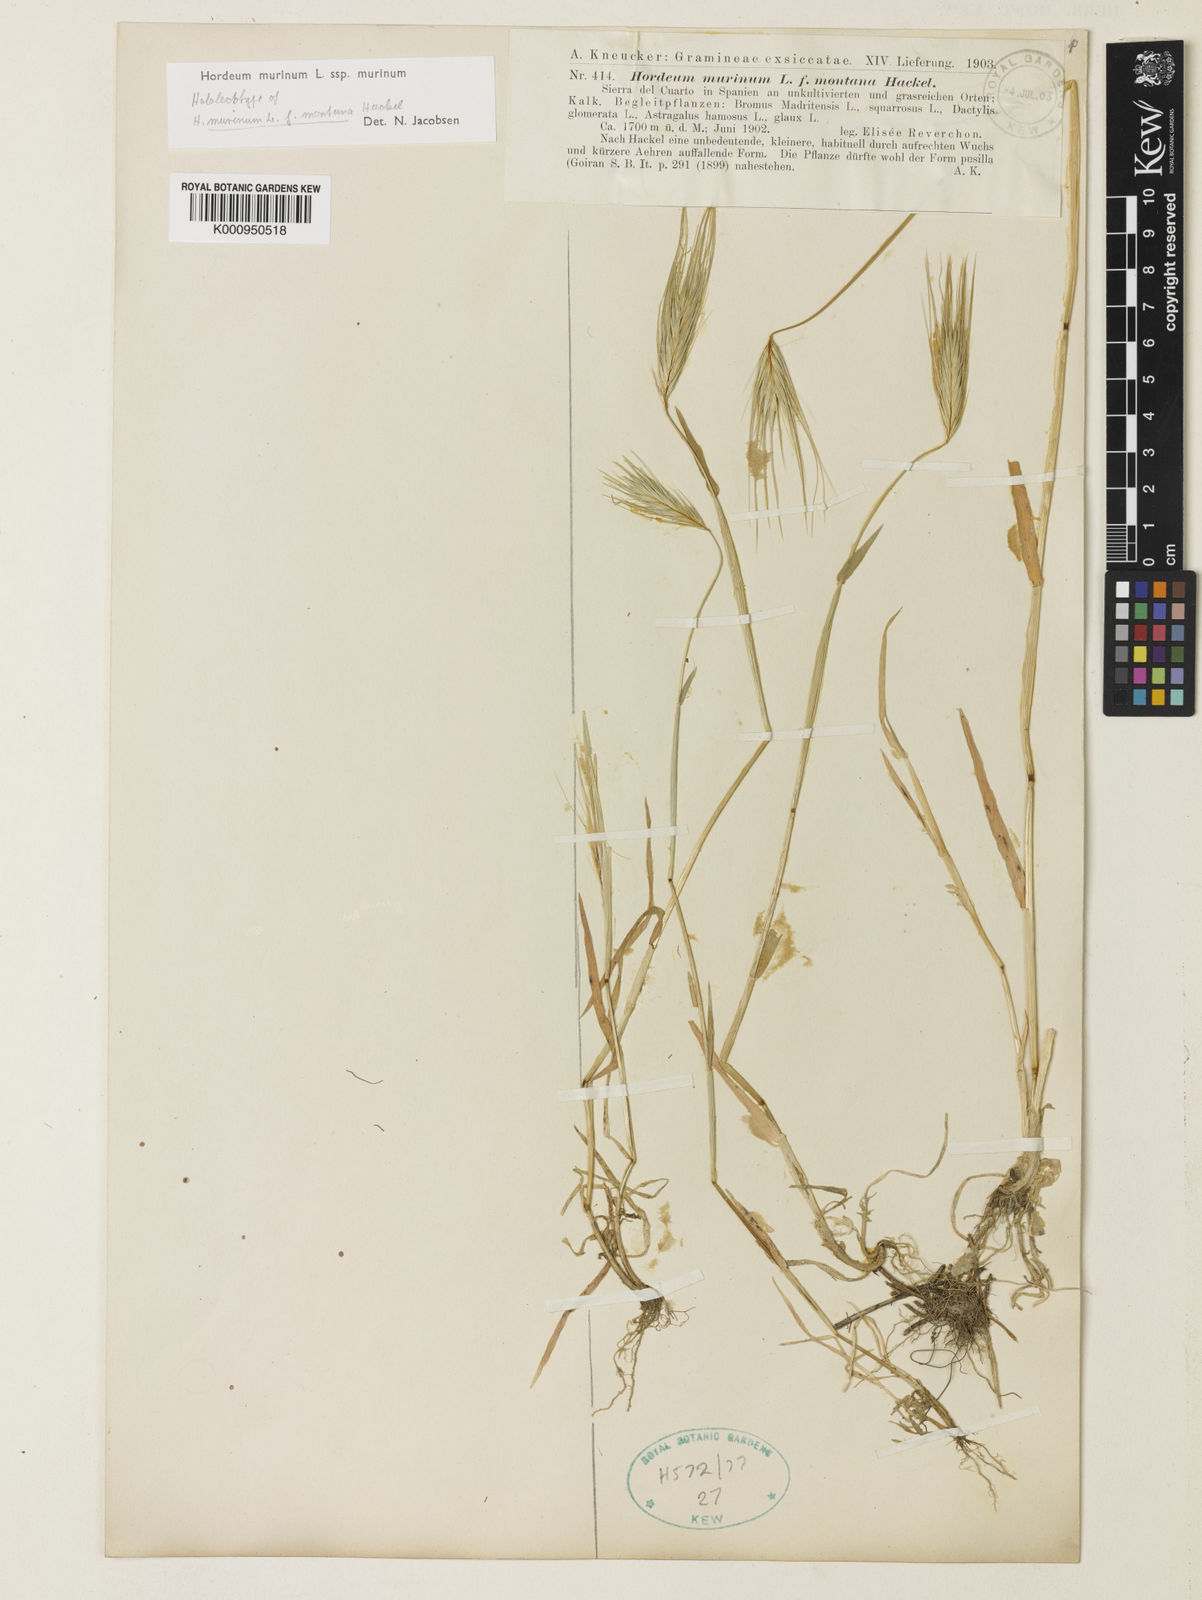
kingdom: Plantae
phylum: Tracheophyta
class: Liliopsida
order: Poales
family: Poaceae
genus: Hordeum
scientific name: Hordeum murinum
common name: Wall barley
